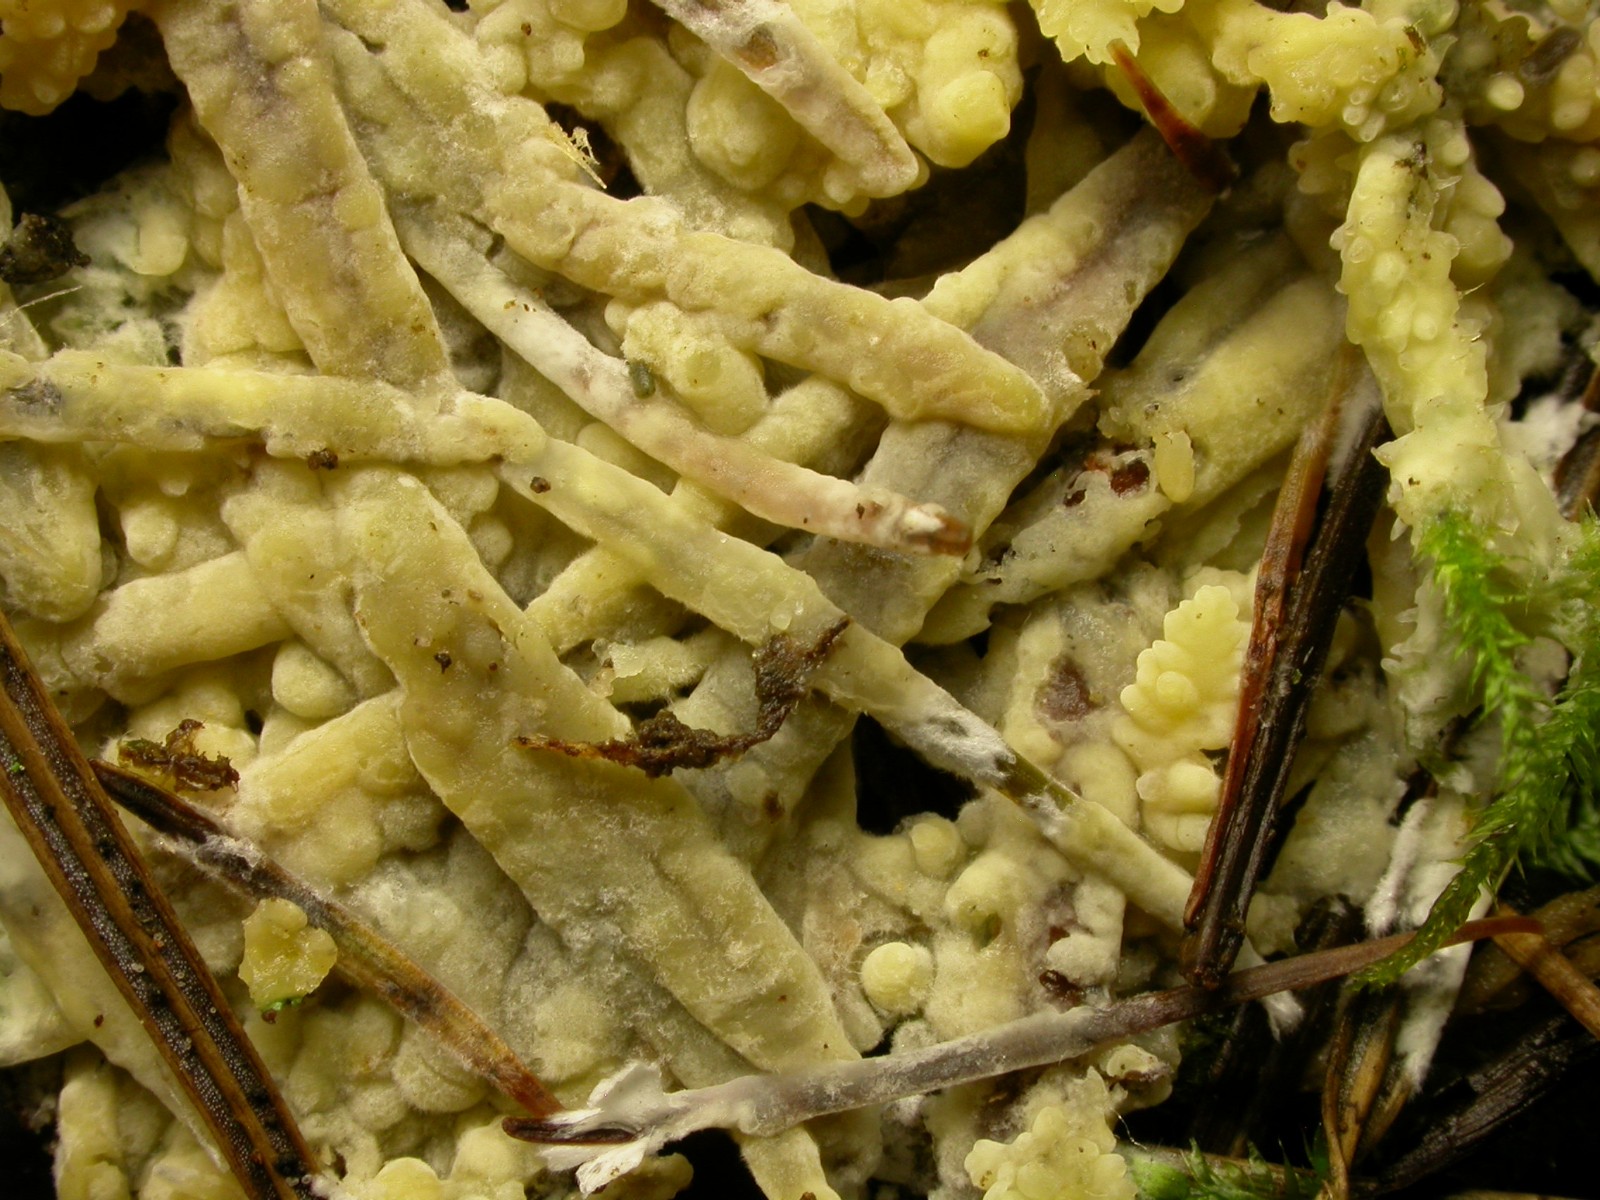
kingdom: Fungi
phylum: Basidiomycota
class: Agaricomycetes
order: Russulales
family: Peniophoraceae
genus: Gloiothele
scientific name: Gloiothele citrina
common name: citronskorpe
